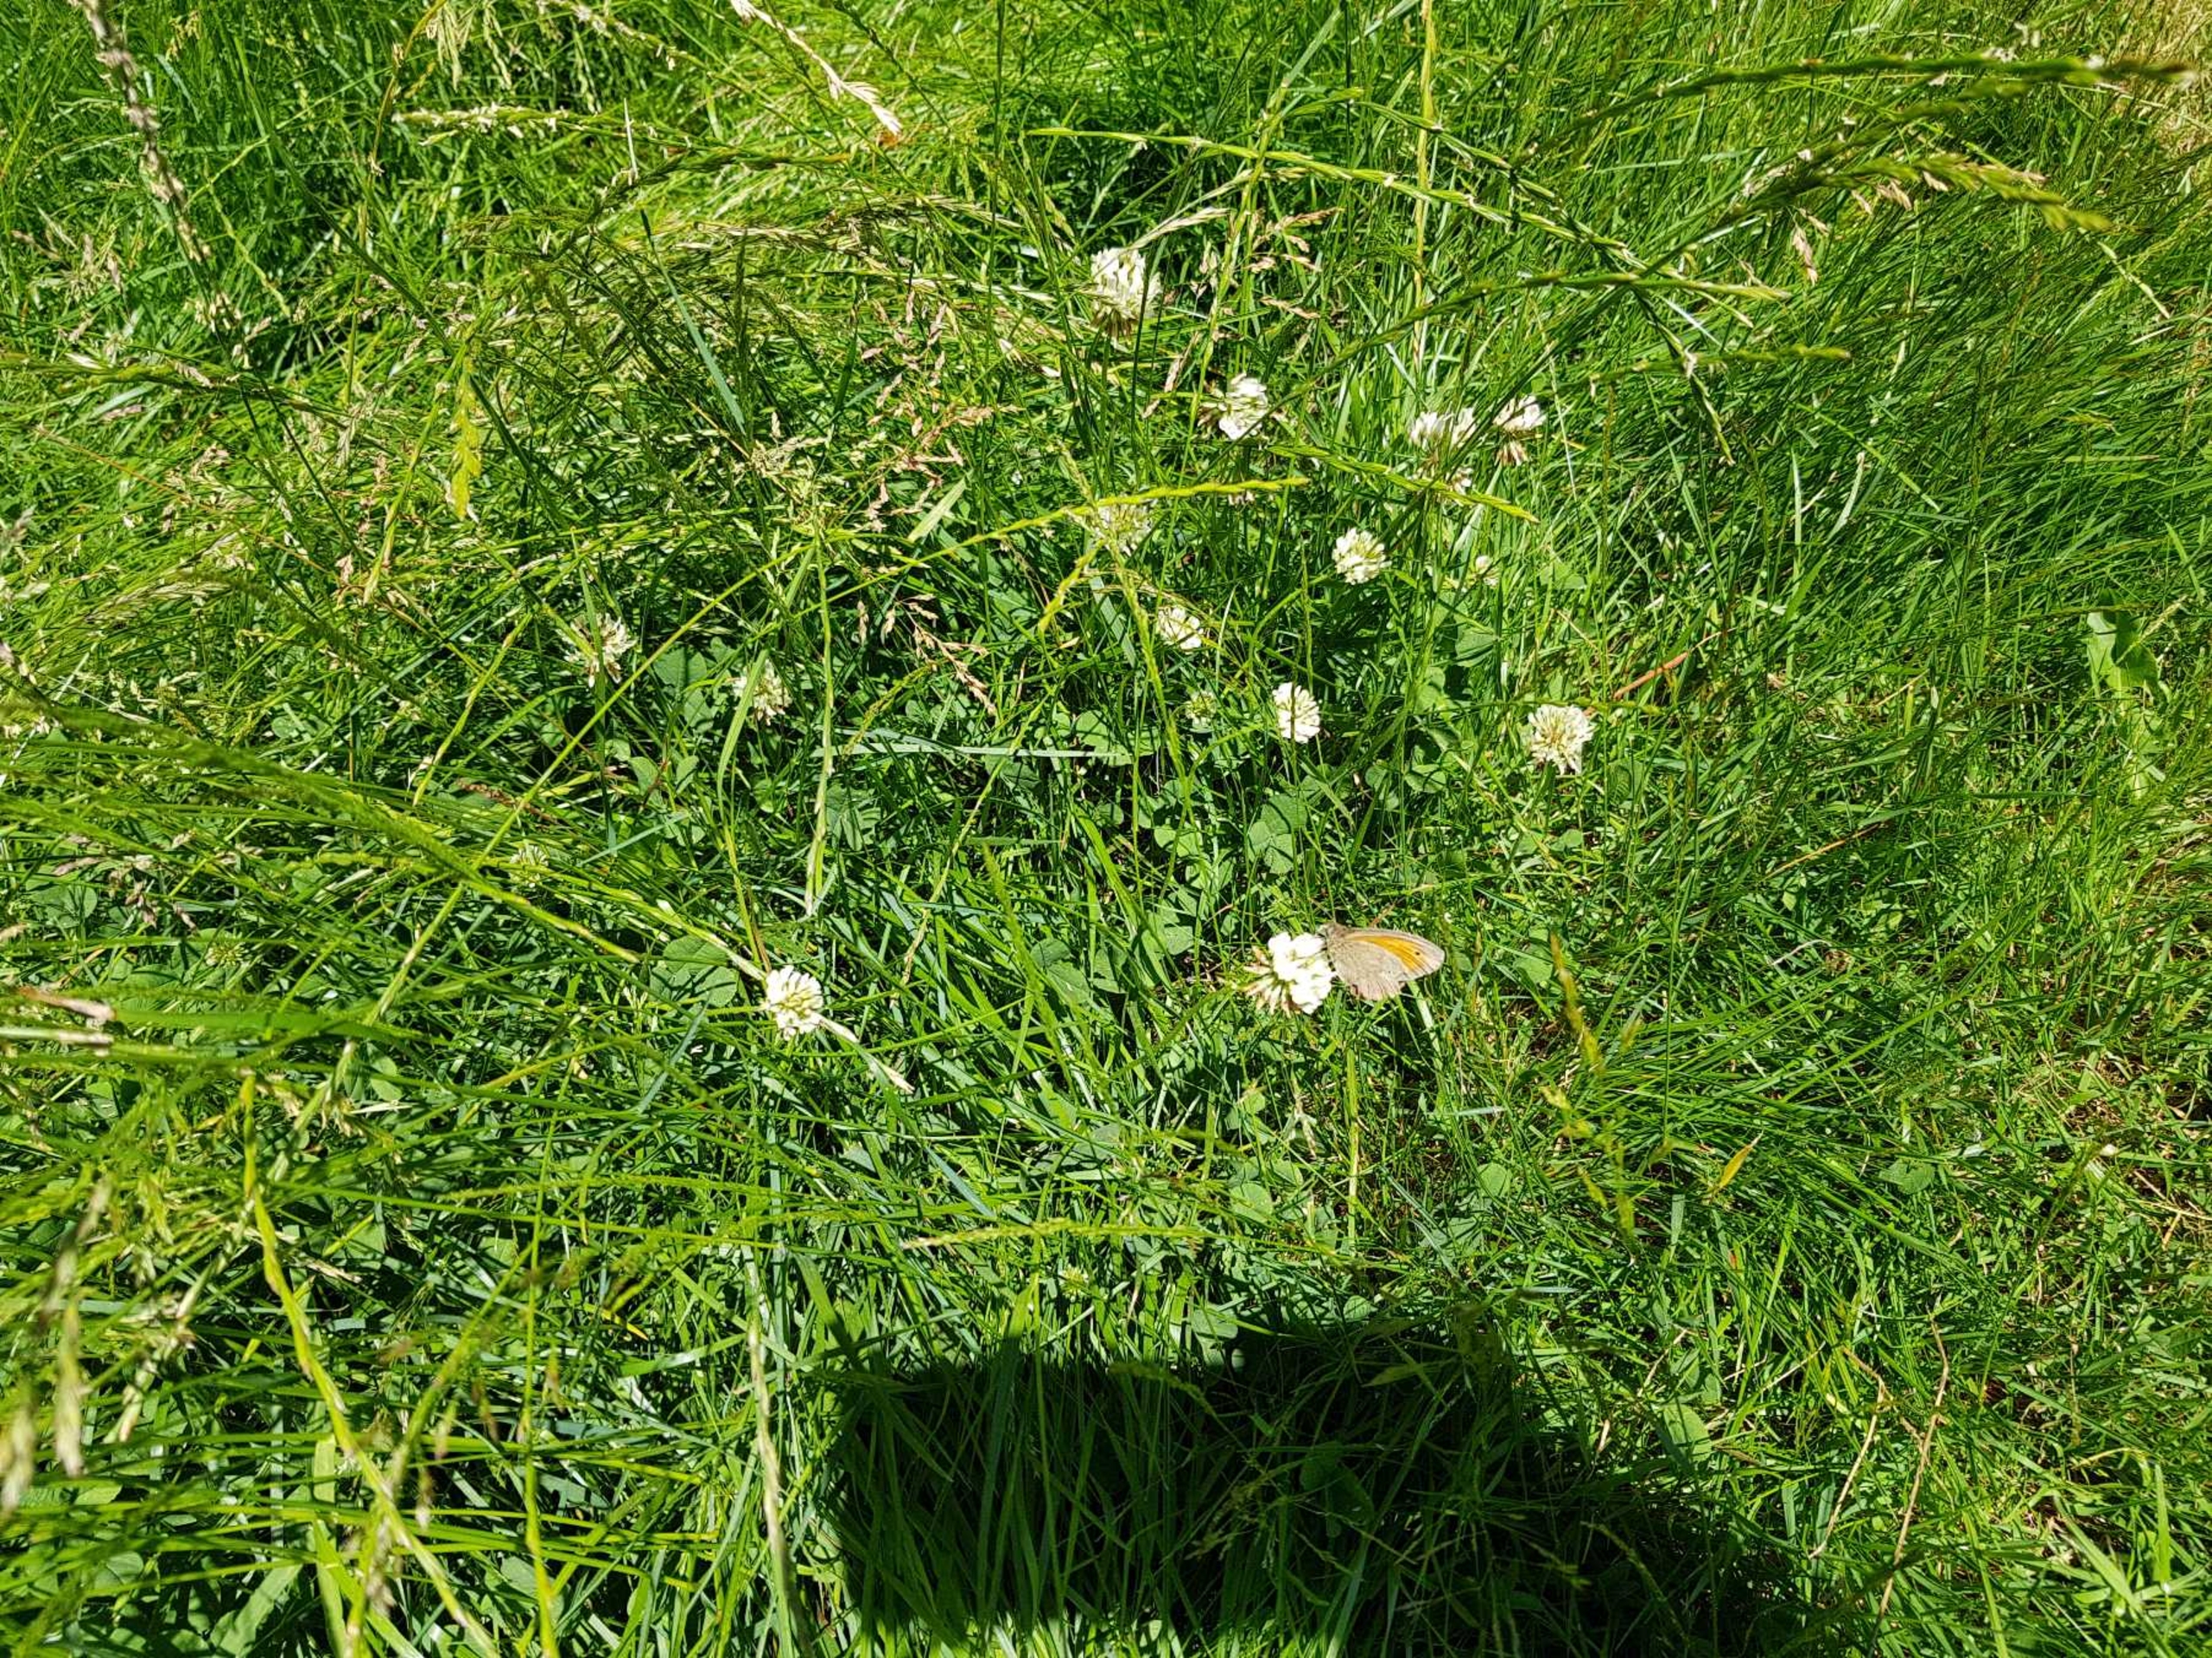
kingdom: Animalia
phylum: Arthropoda
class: Insecta
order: Lepidoptera
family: Nymphalidae
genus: Maniola
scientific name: Maniola jurtina
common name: Græsrandøje
